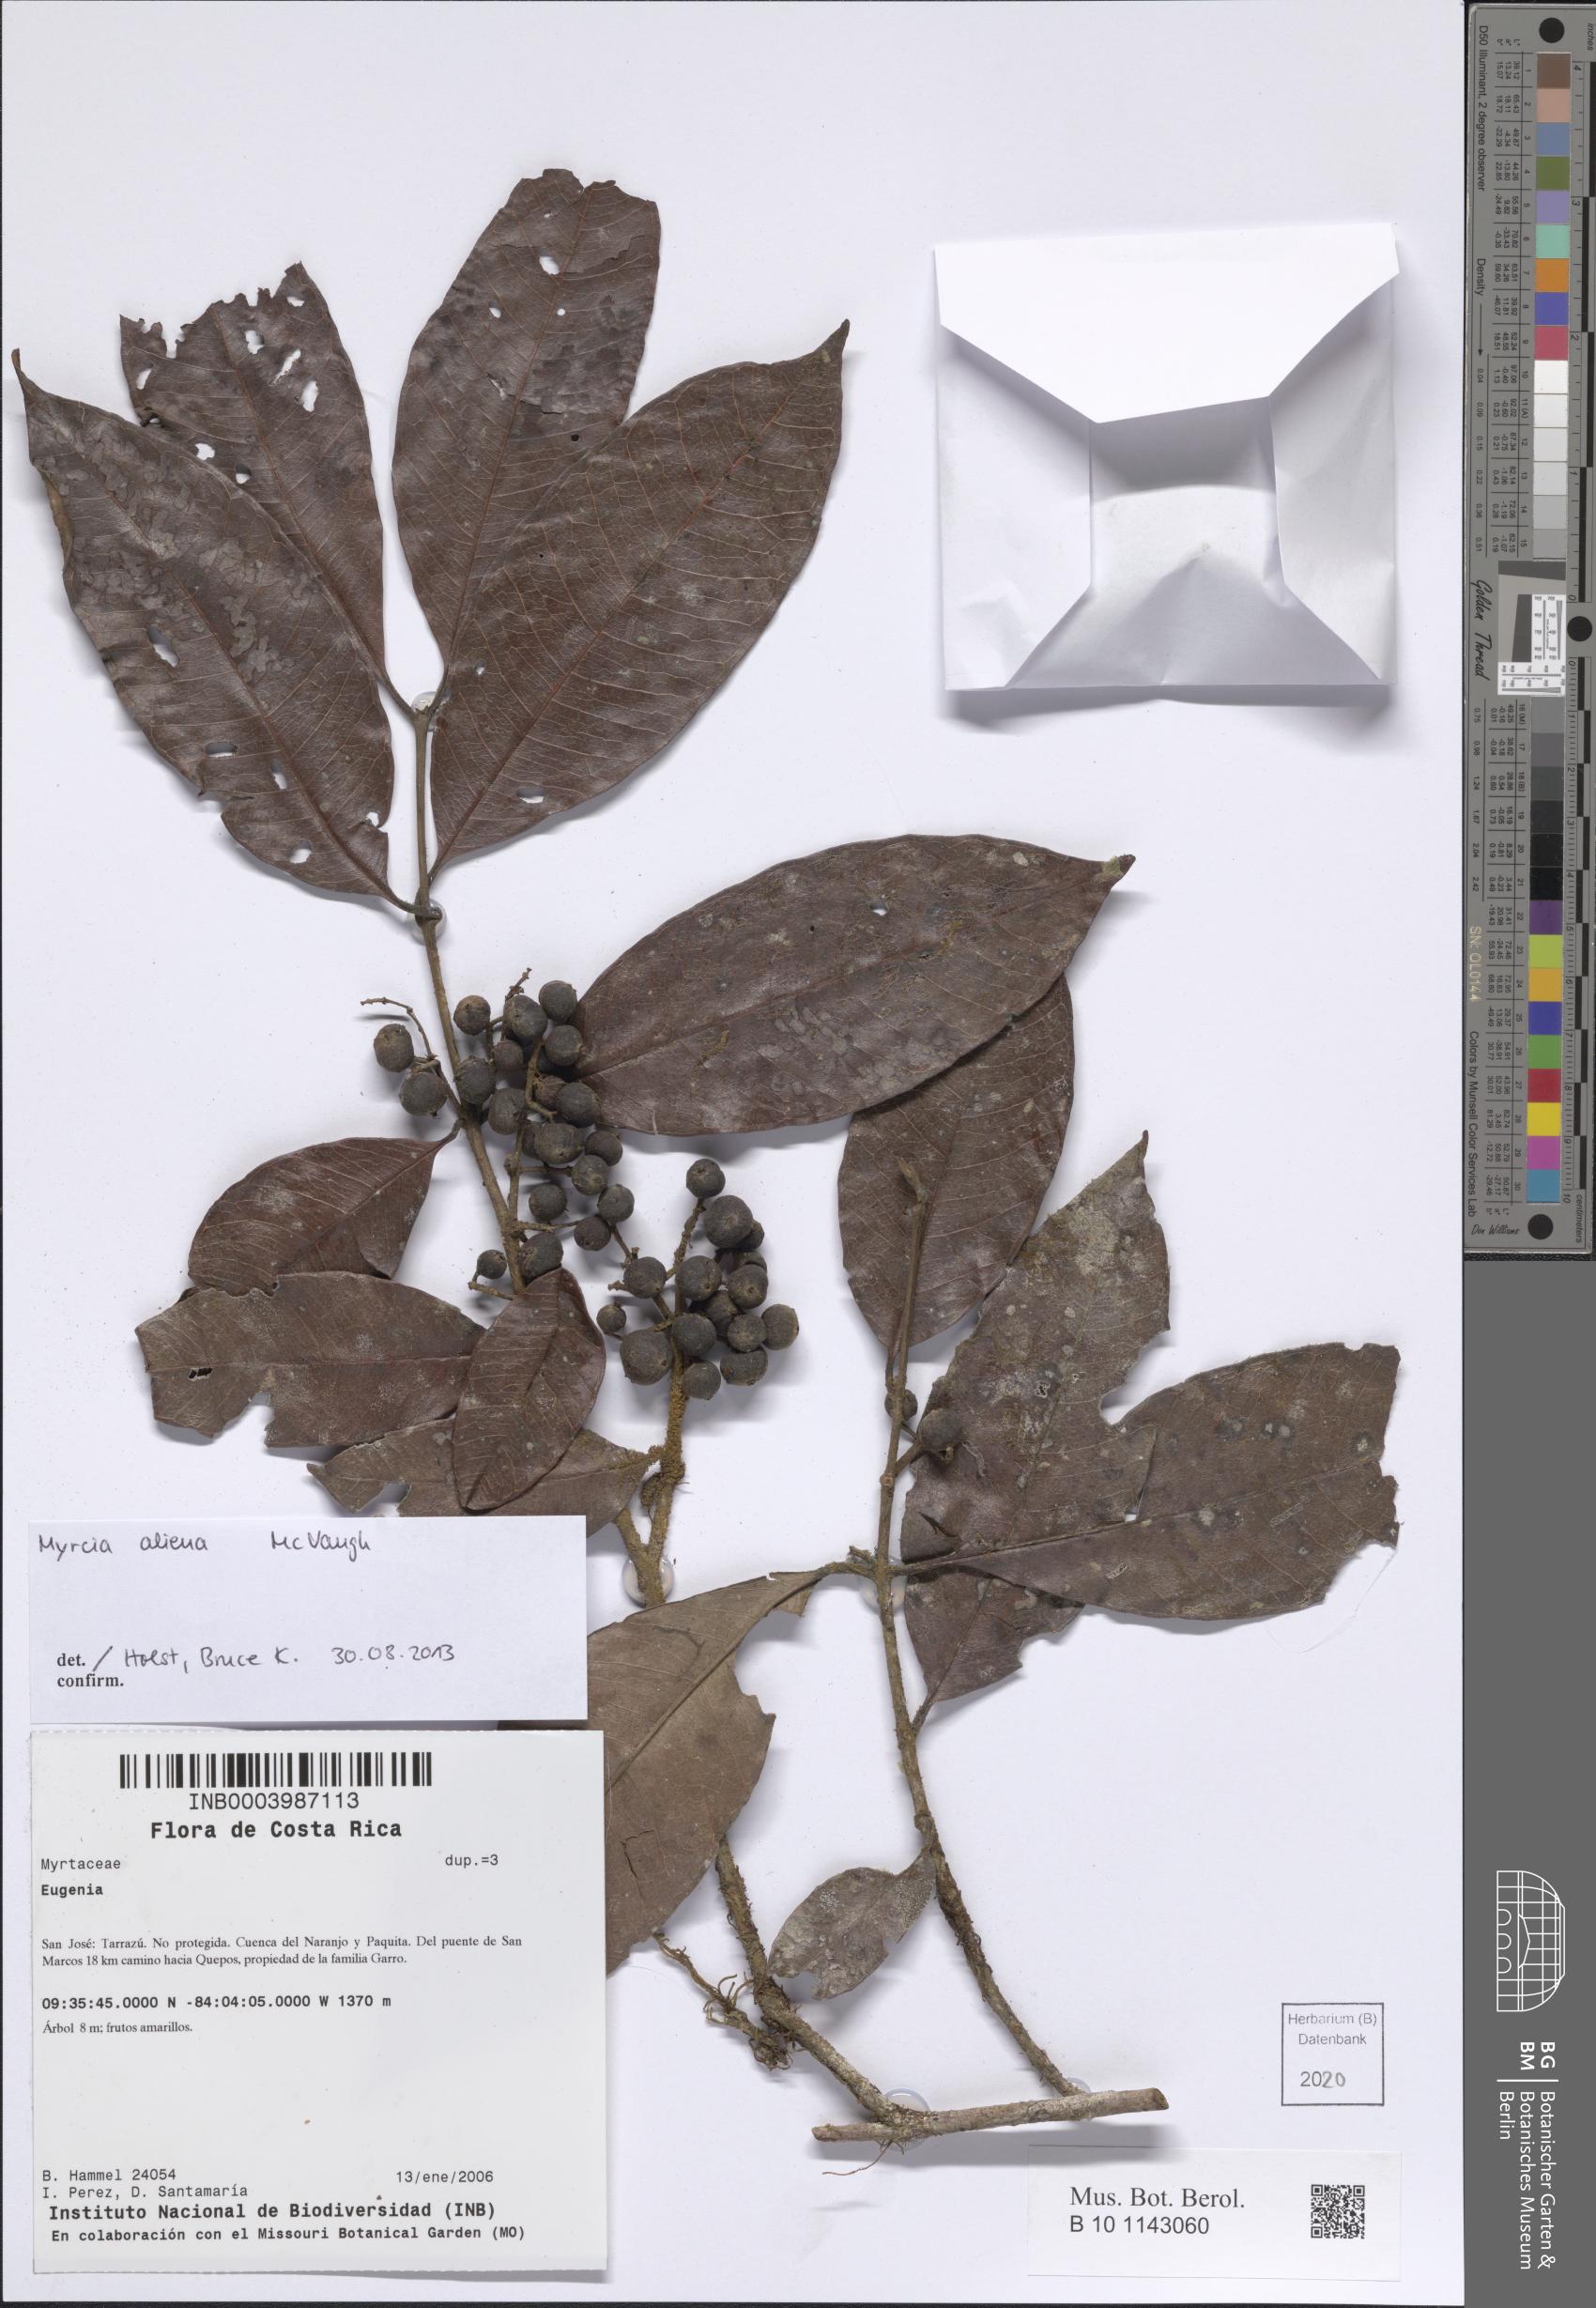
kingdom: Plantae
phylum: Tracheophyta
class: Magnoliopsida
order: Myrtales
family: Myrtaceae
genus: Myrcia
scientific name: Myrcia aliena
